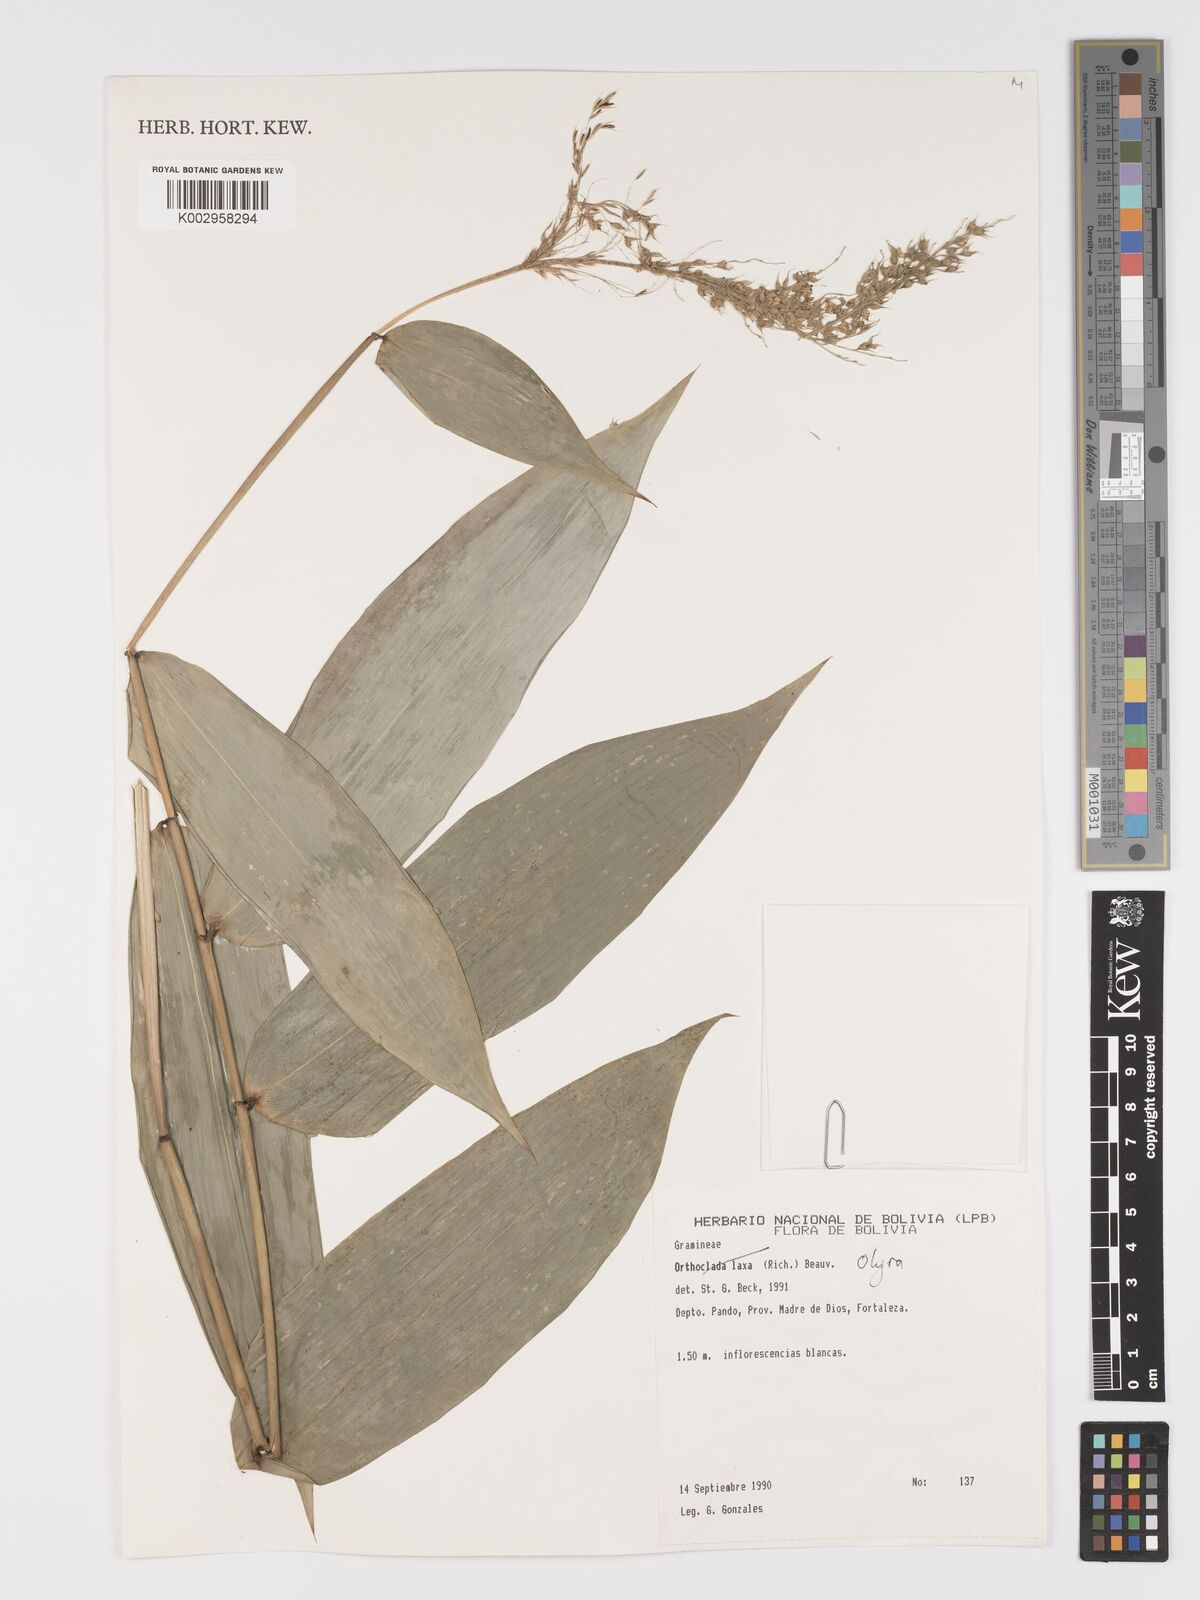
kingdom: Plantae
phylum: Tracheophyta
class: Liliopsida
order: Poales
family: Poaceae
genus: Taquara
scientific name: Taquara micrantha
